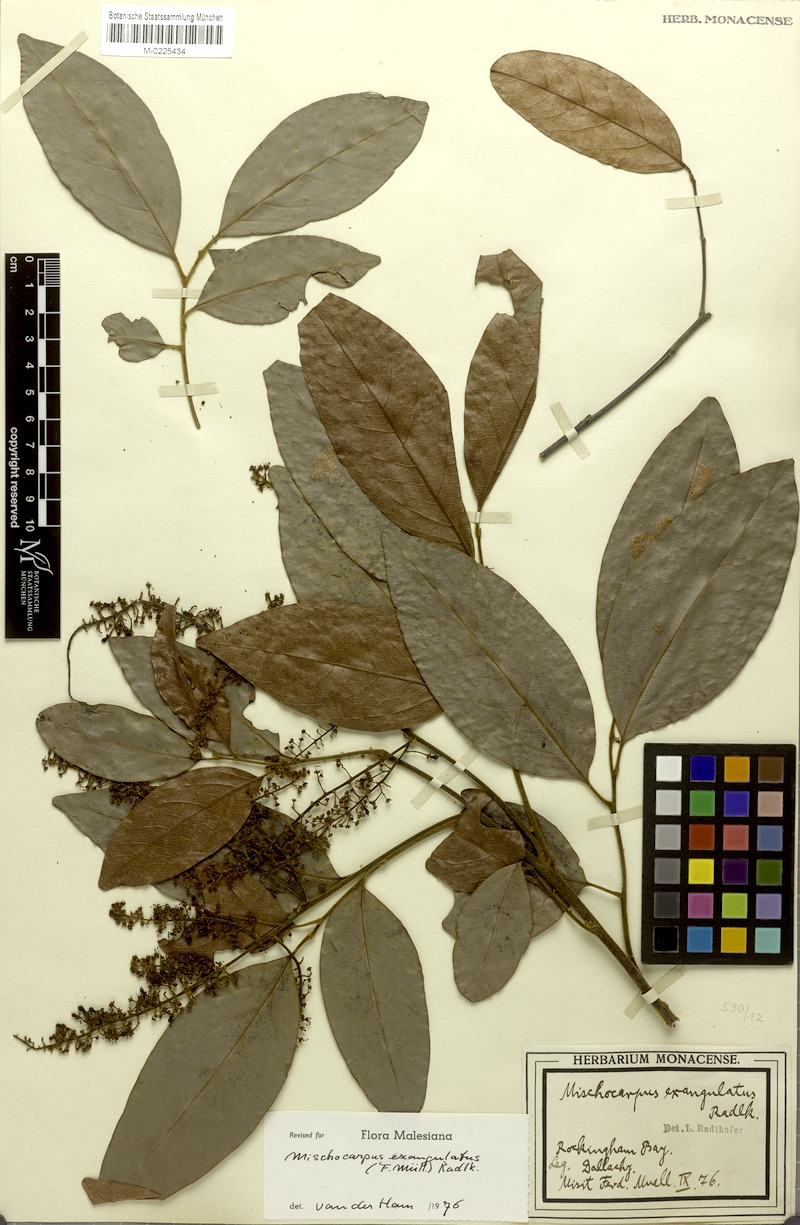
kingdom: Plantae
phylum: Tracheophyta
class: Magnoliopsida
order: Sapindales
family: Sapindaceae
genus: Mischocarpus
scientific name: Mischocarpus exangulatus
